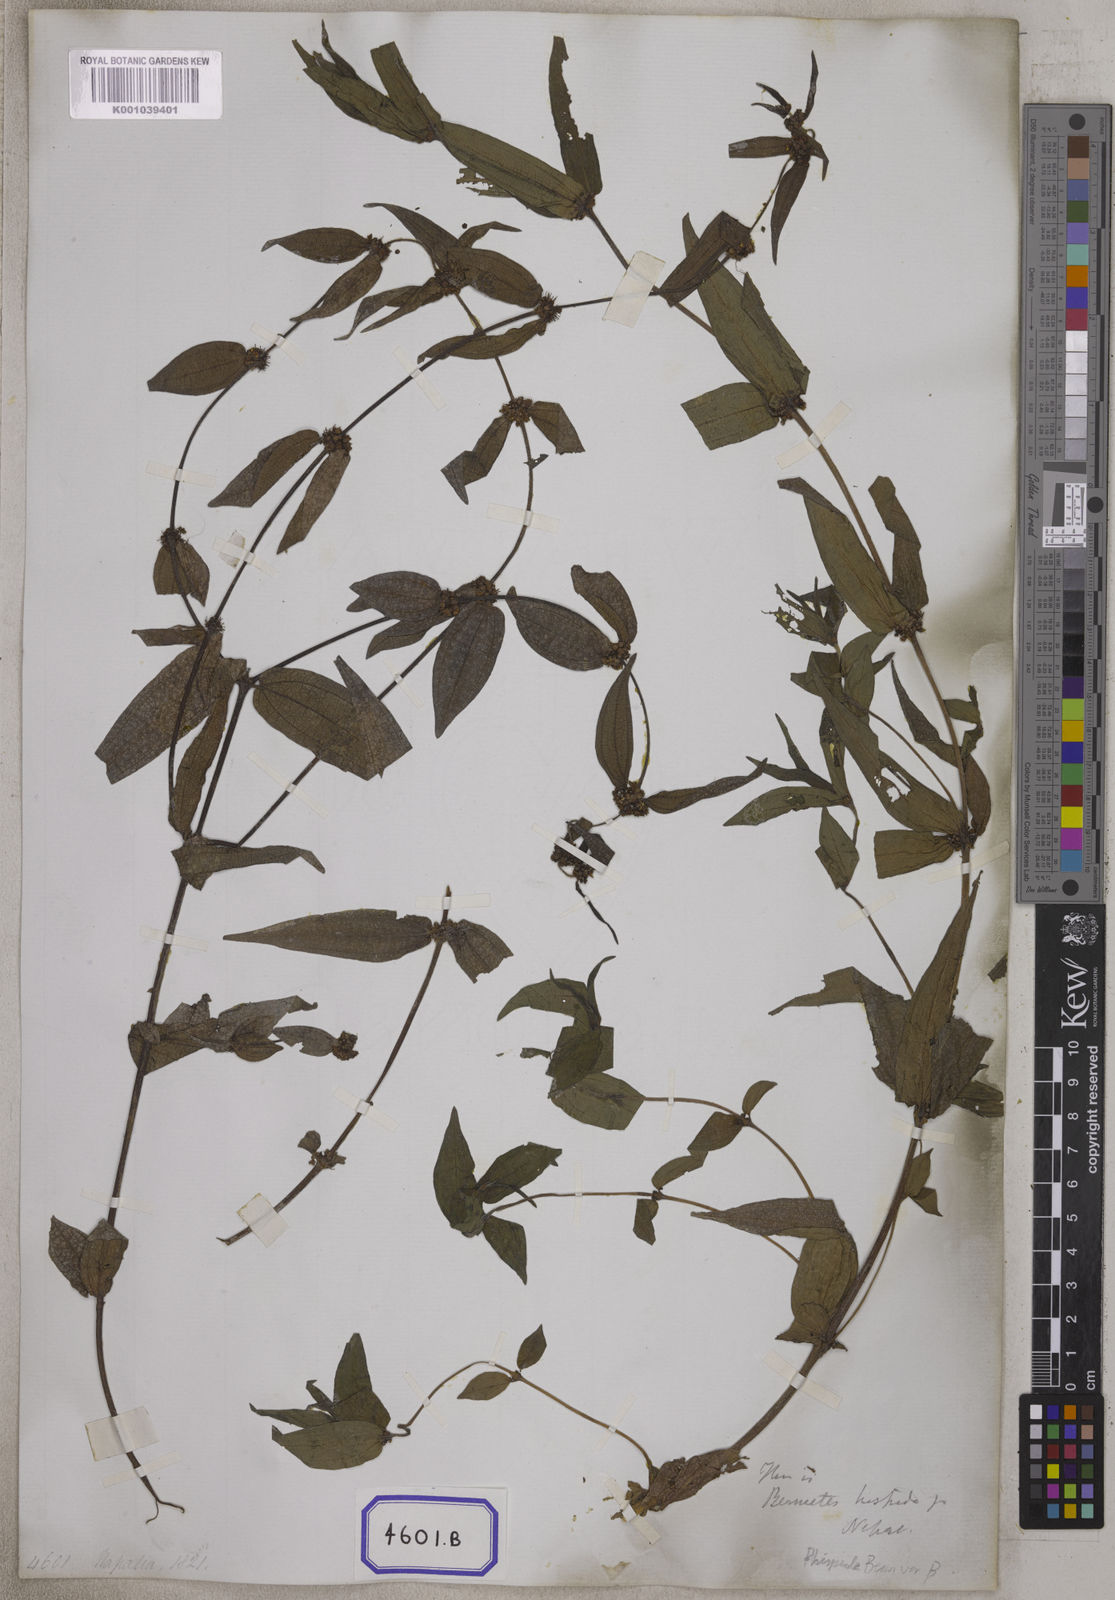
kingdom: Plantae
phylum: Tracheophyta
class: Magnoliopsida
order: Rosales
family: Urticaceae
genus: Gonostegia
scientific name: Gonostegia triandra
